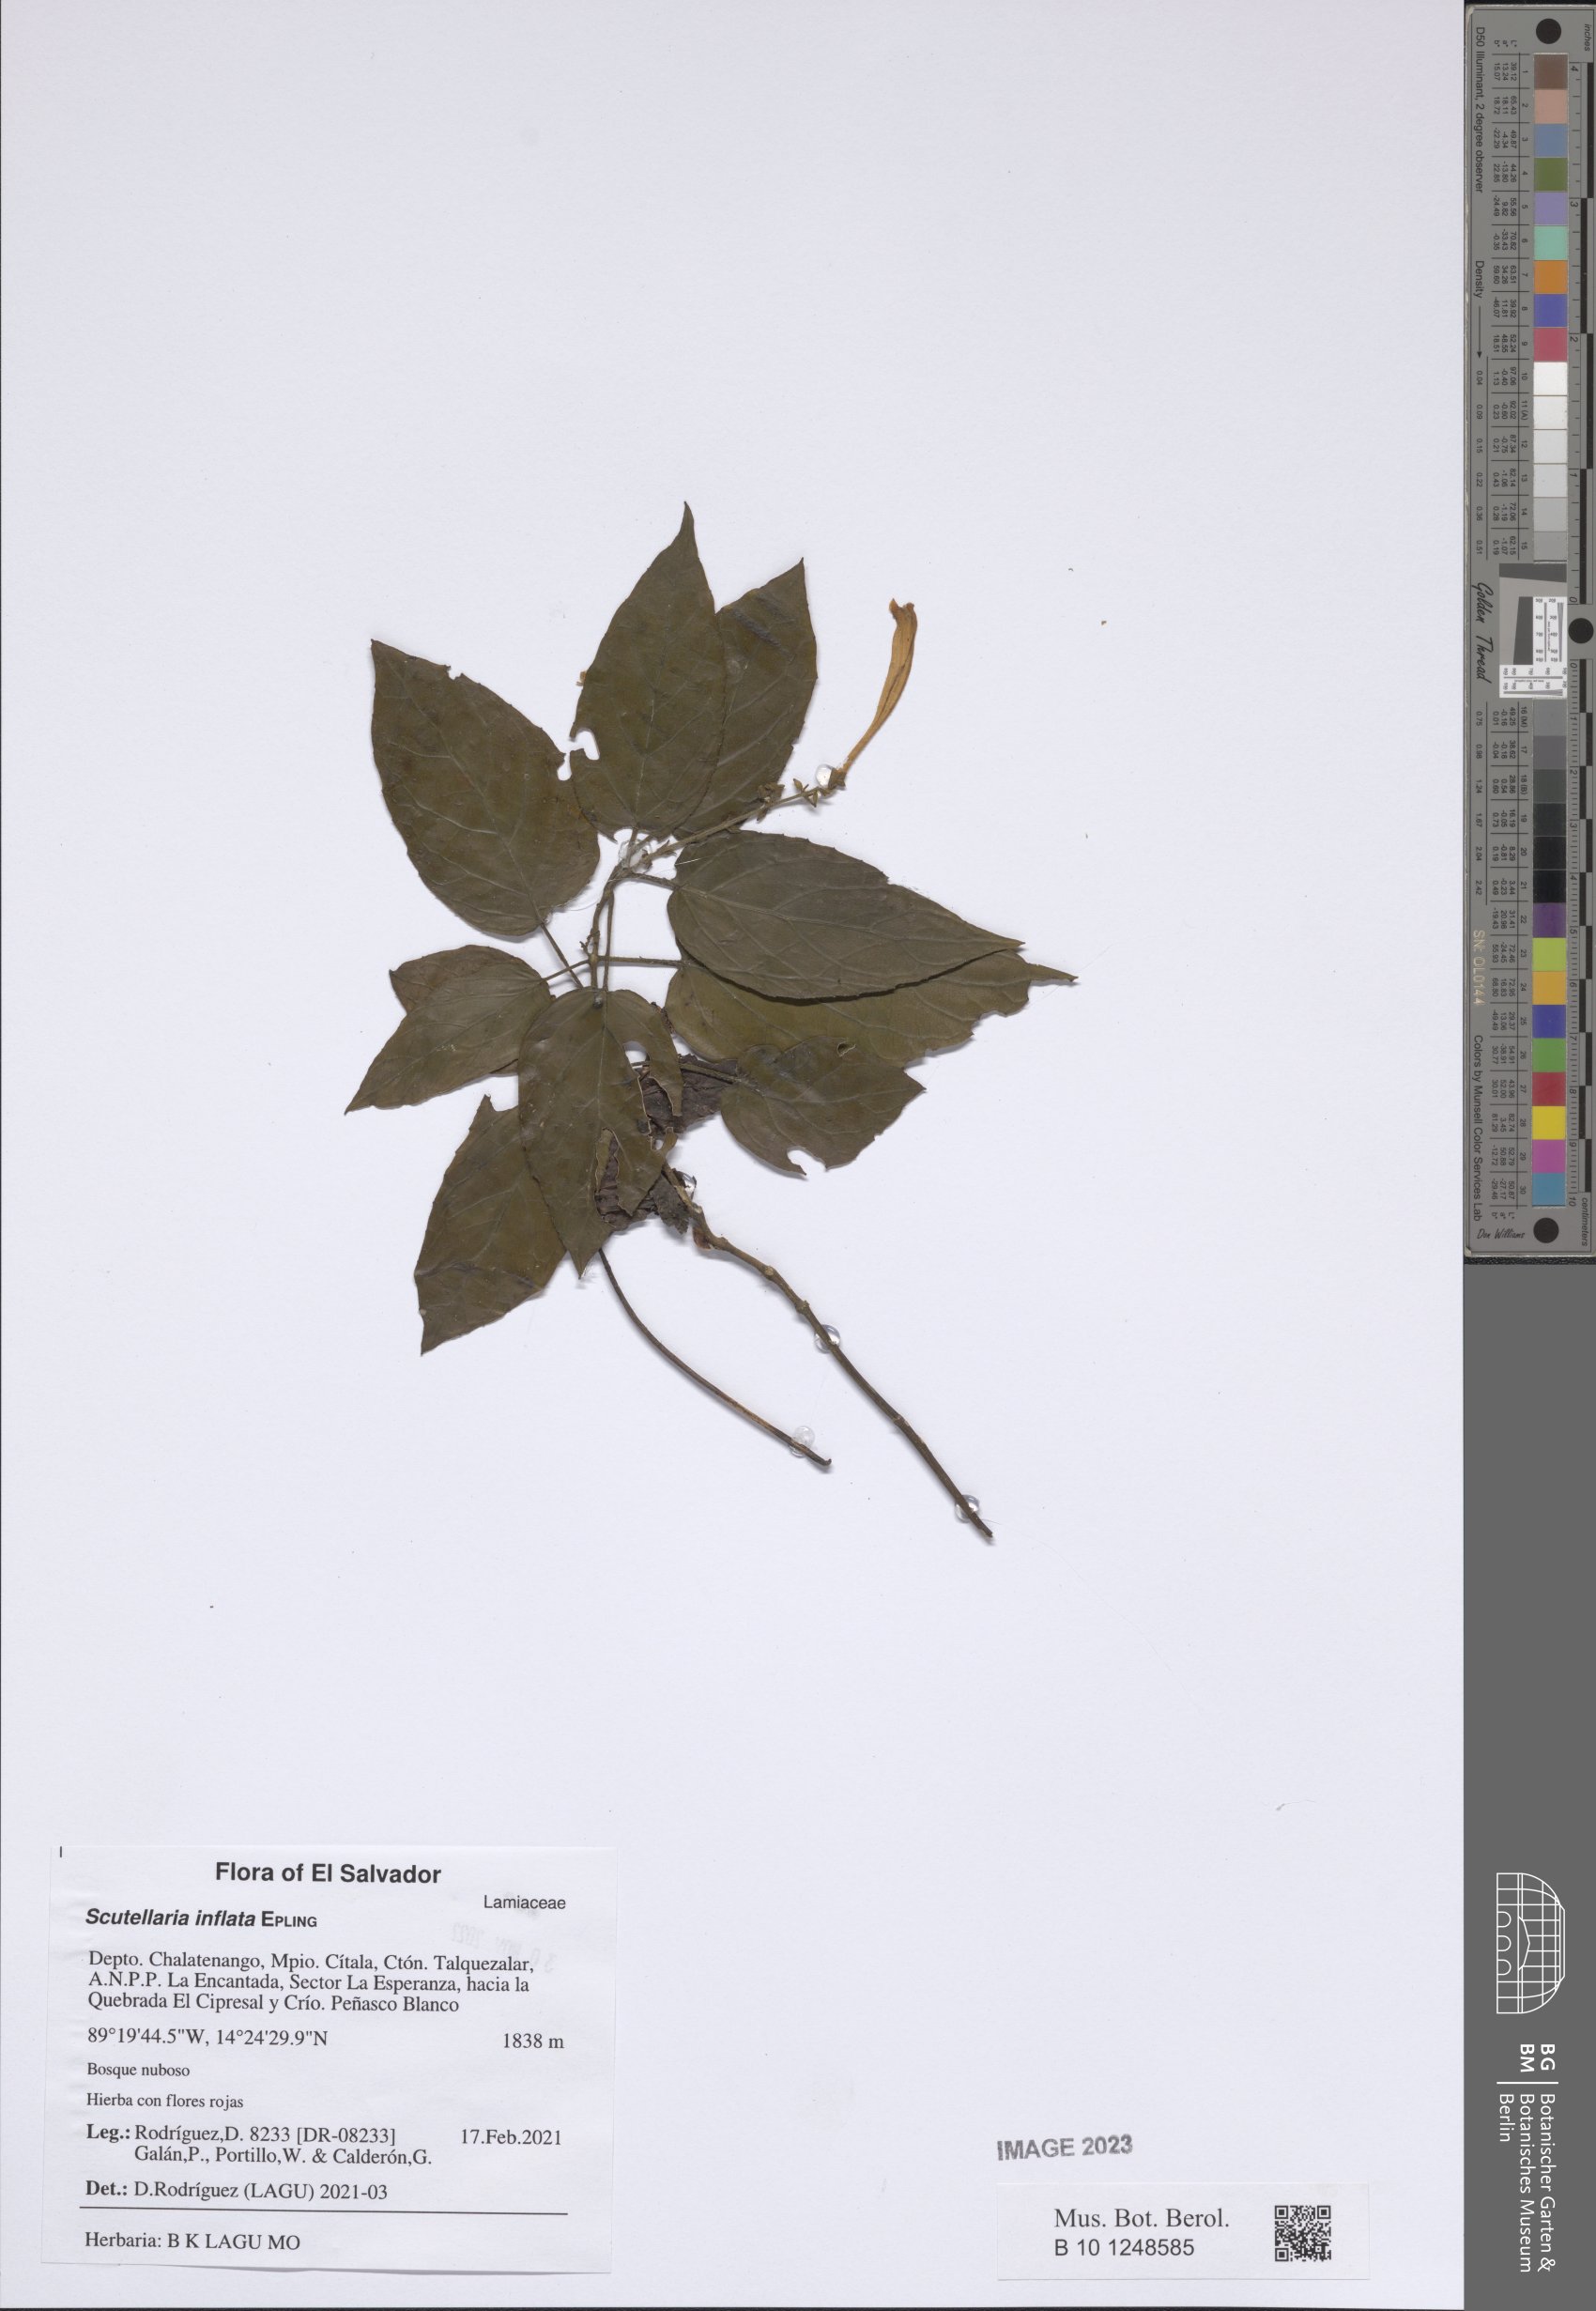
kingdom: Plantae
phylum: Tracheophyta
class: Magnoliopsida
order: Lamiales
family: Lamiaceae
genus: Scutellaria
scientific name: Scutellaria inflata
